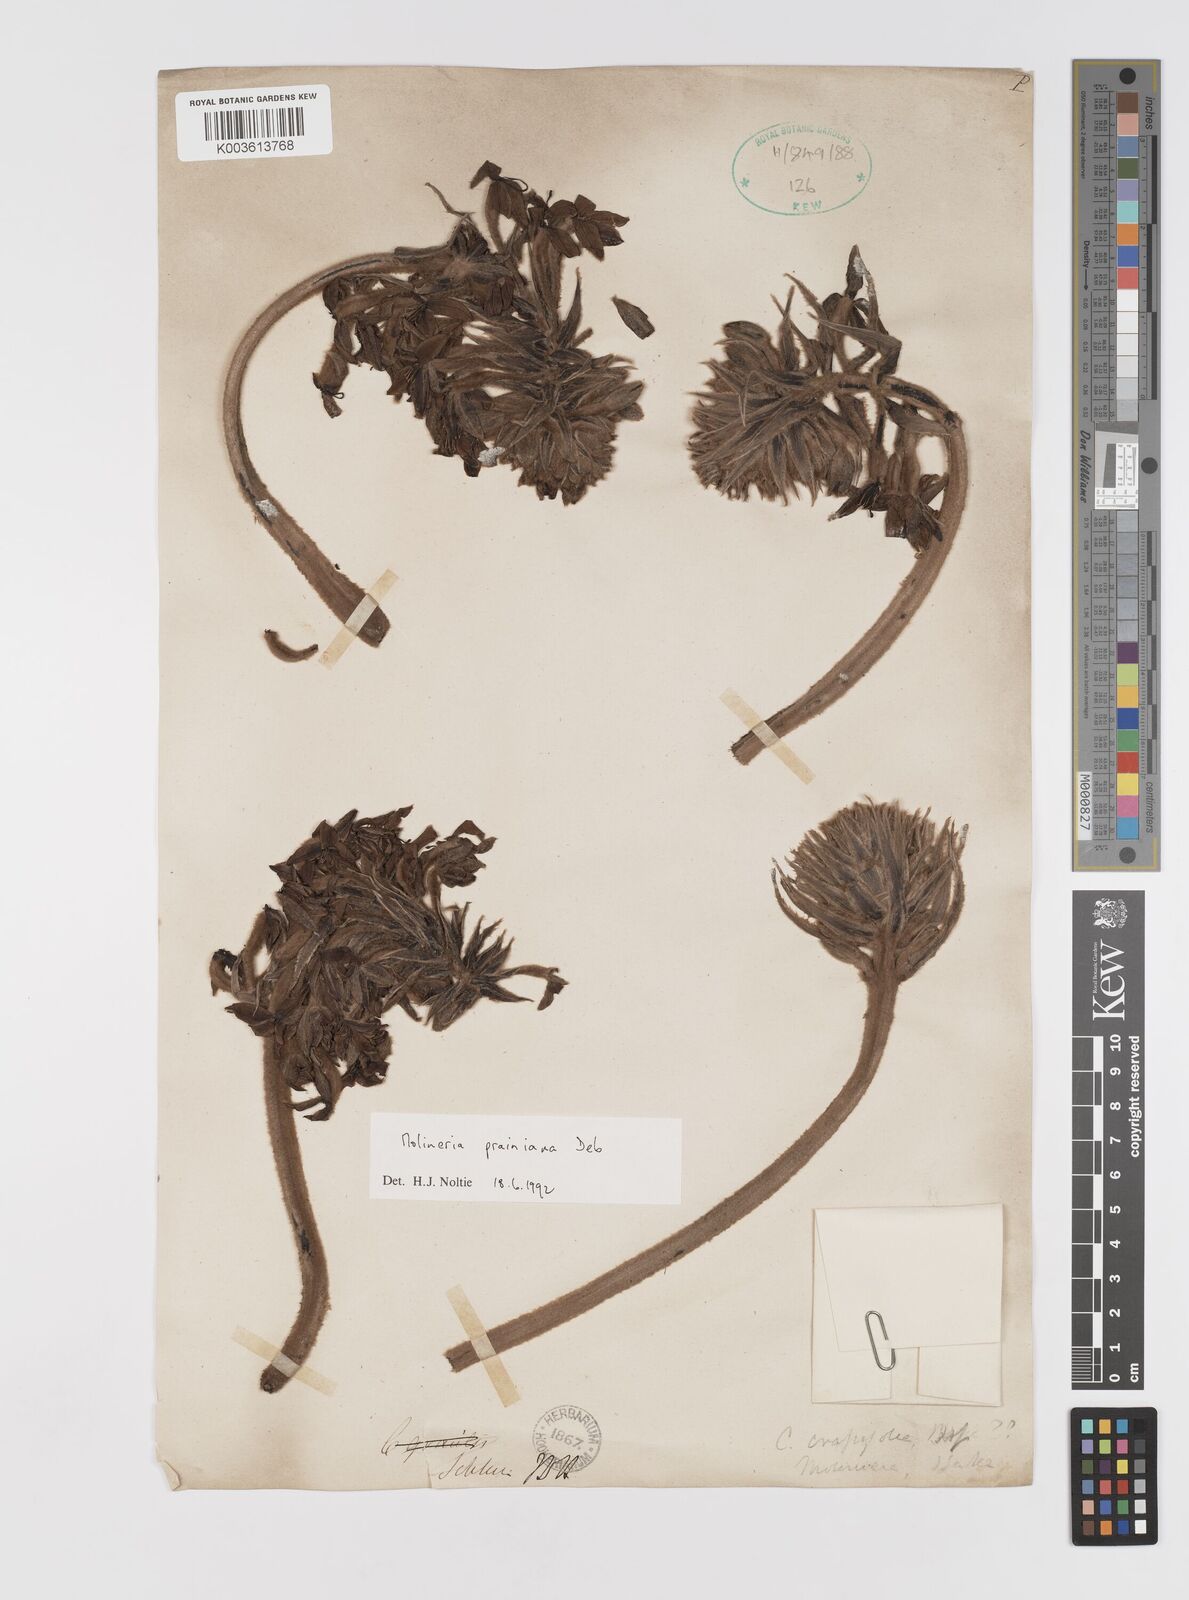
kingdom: Plantae
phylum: Tracheophyta
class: Liliopsida
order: Asparagales
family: Hypoxidaceae
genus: Curculigo
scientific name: Curculigo prainiana
